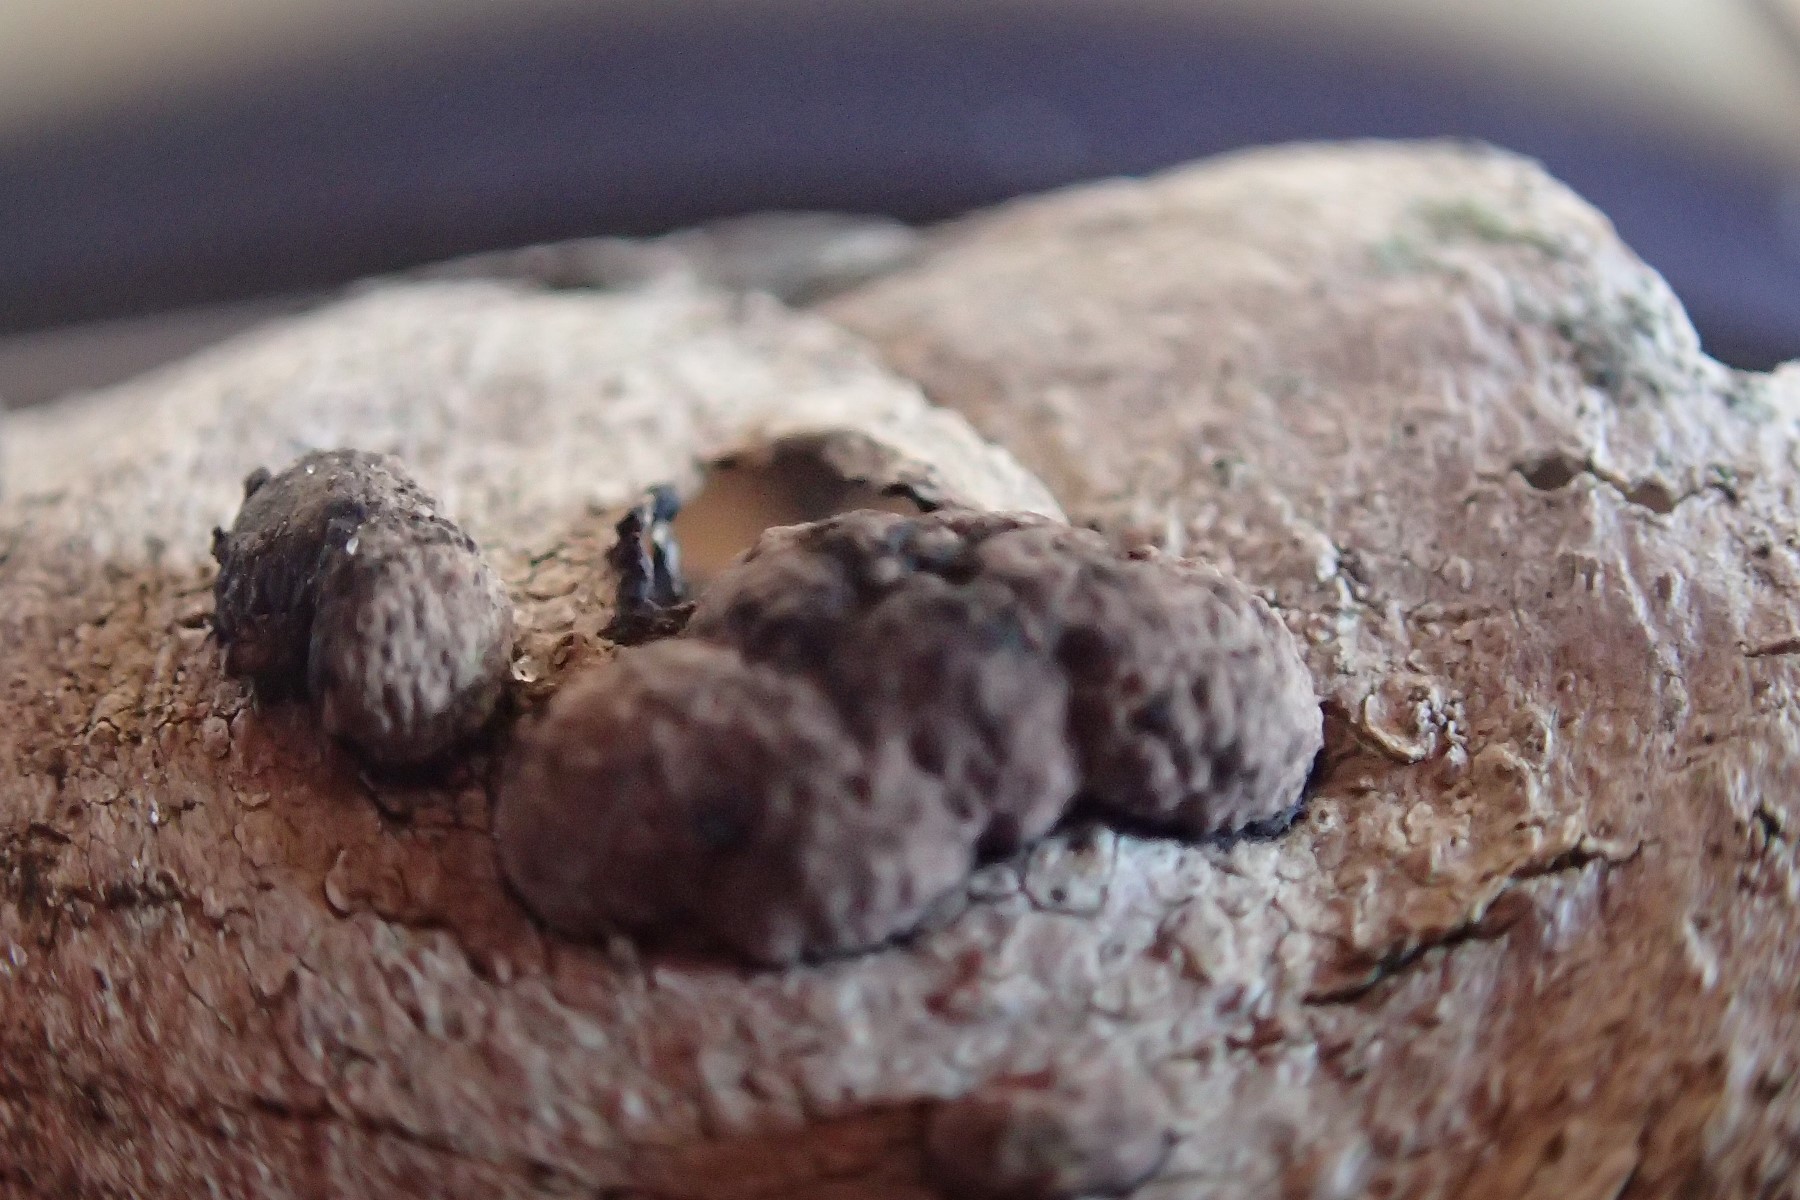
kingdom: Fungi
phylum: Ascomycota
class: Sordariomycetes
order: Xylariales
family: Hypoxylaceae
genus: Hypoxylon
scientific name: Hypoxylon
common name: kulbær
